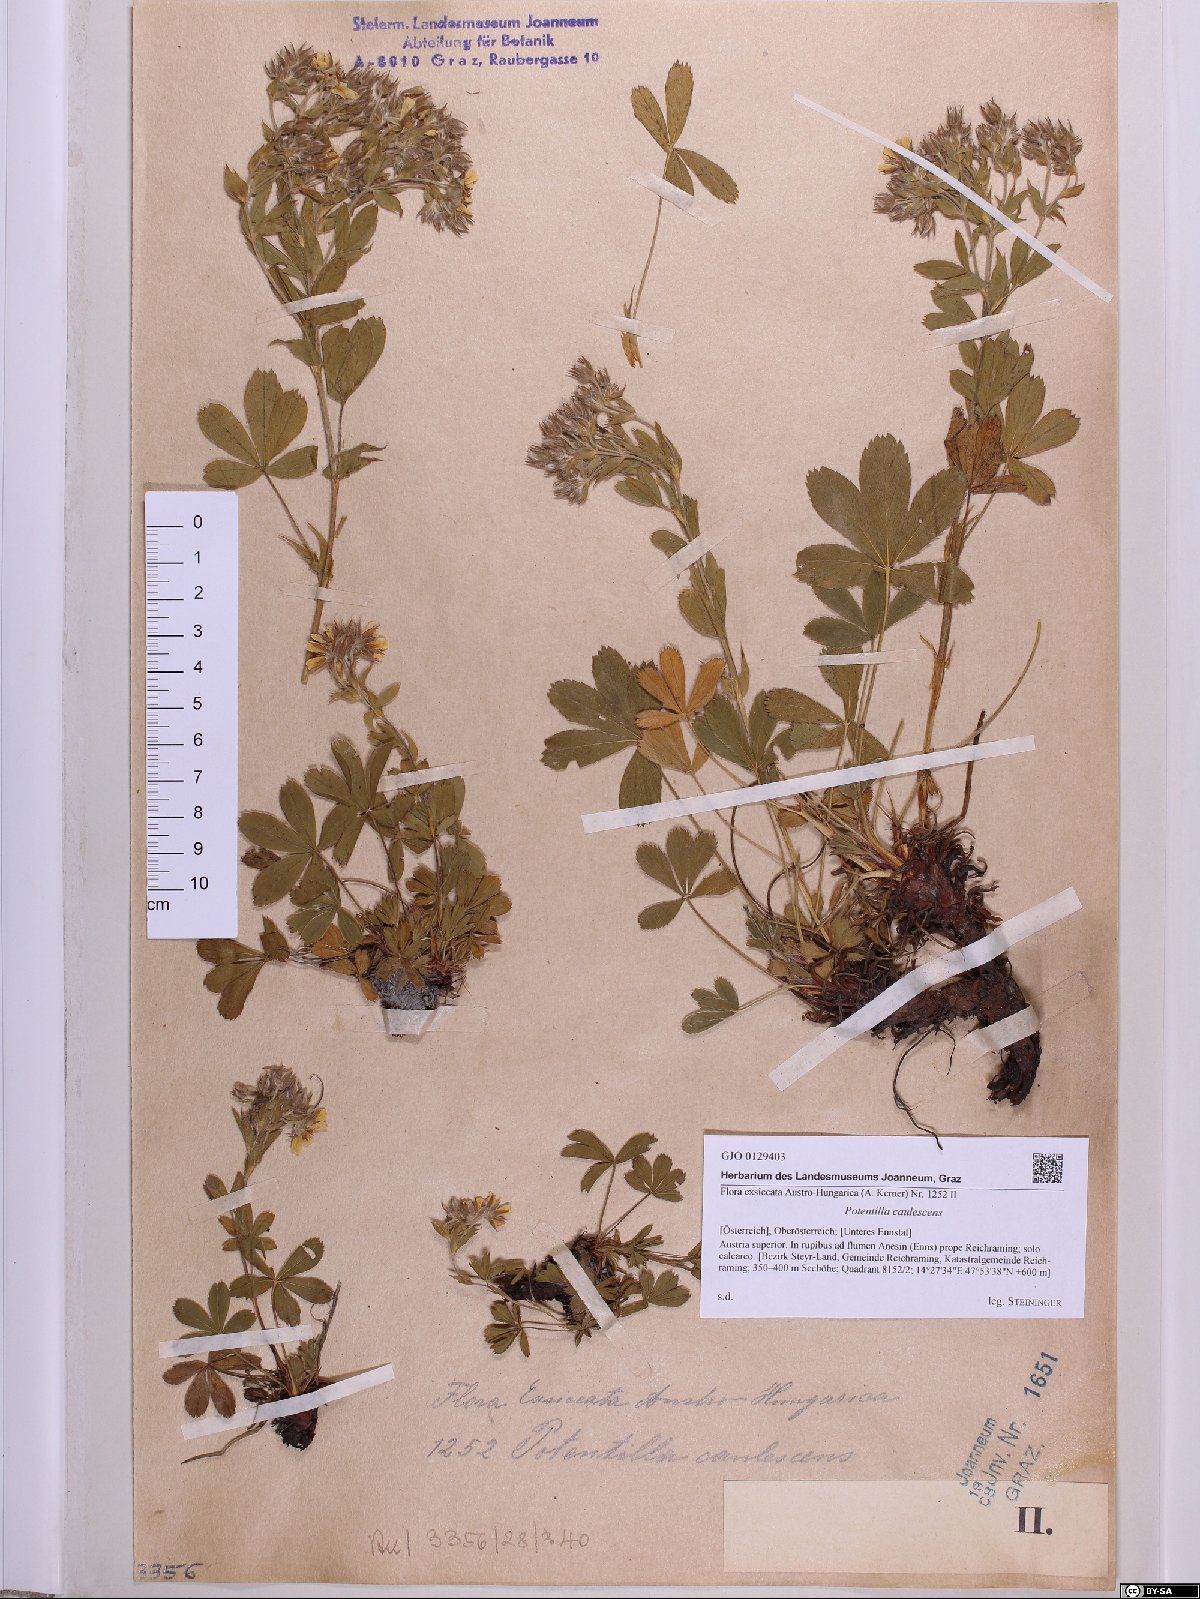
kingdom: Plantae
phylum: Tracheophyta
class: Magnoliopsida
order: Rosales
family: Rosaceae
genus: Potentilla
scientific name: Potentilla caulescens
